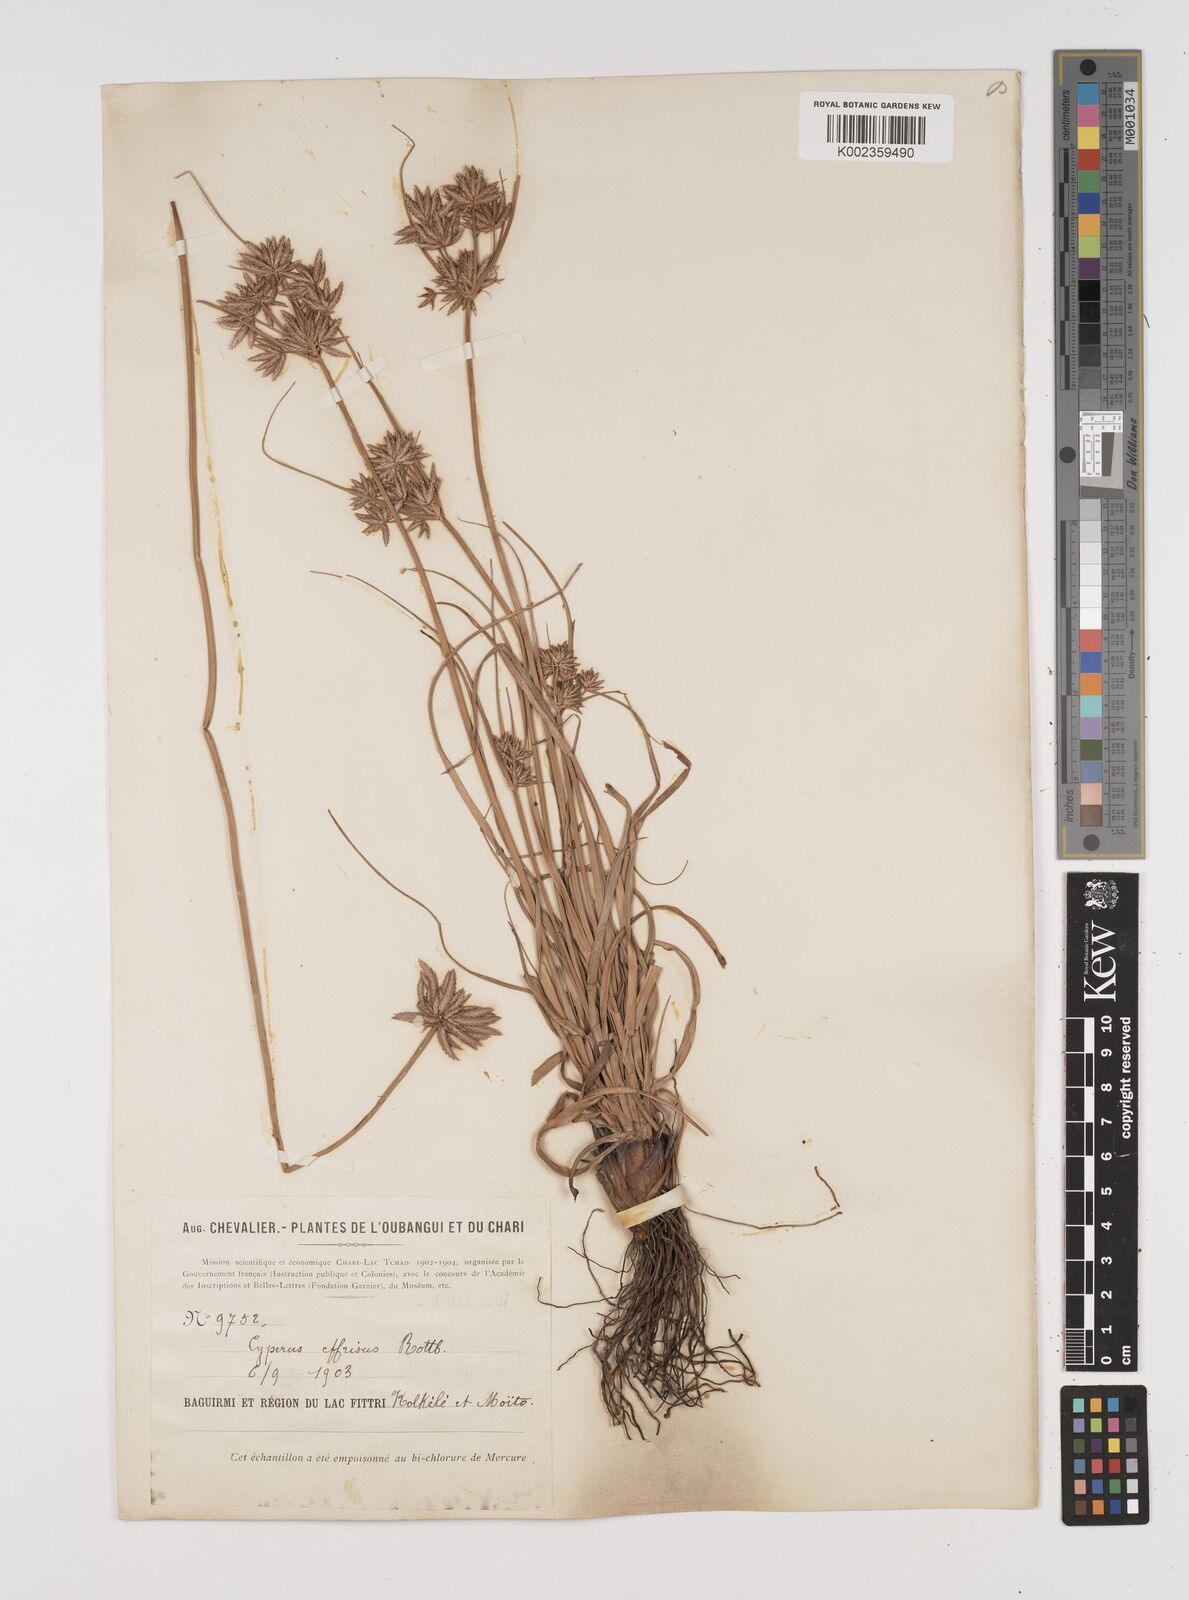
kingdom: Plantae
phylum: Tracheophyta
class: Liliopsida
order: Poales
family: Cyperaceae
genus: Cyperus
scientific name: Cyperus conglomeratus
